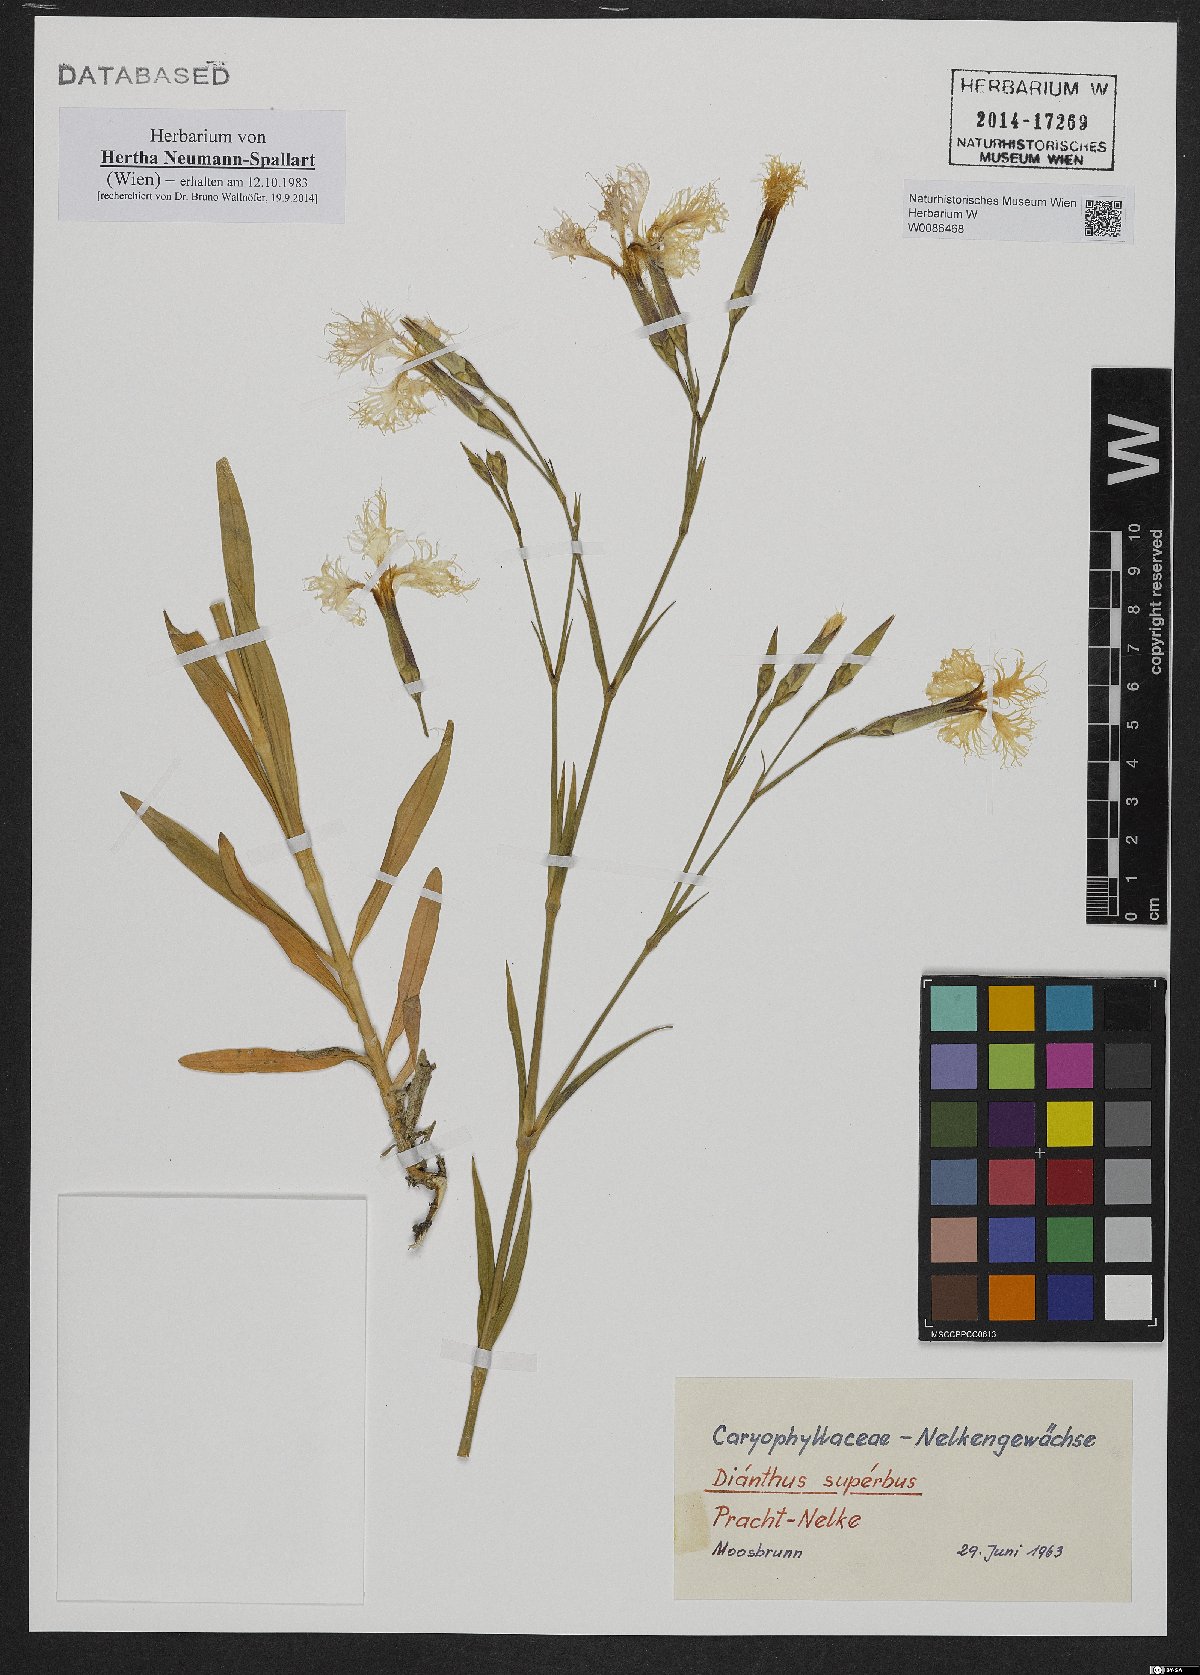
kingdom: Plantae
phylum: Tracheophyta
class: Magnoliopsida
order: Caryophyllales
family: Caryophyllaceae
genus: Dianthus
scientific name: Dianthus superbus
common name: Fringed pink
